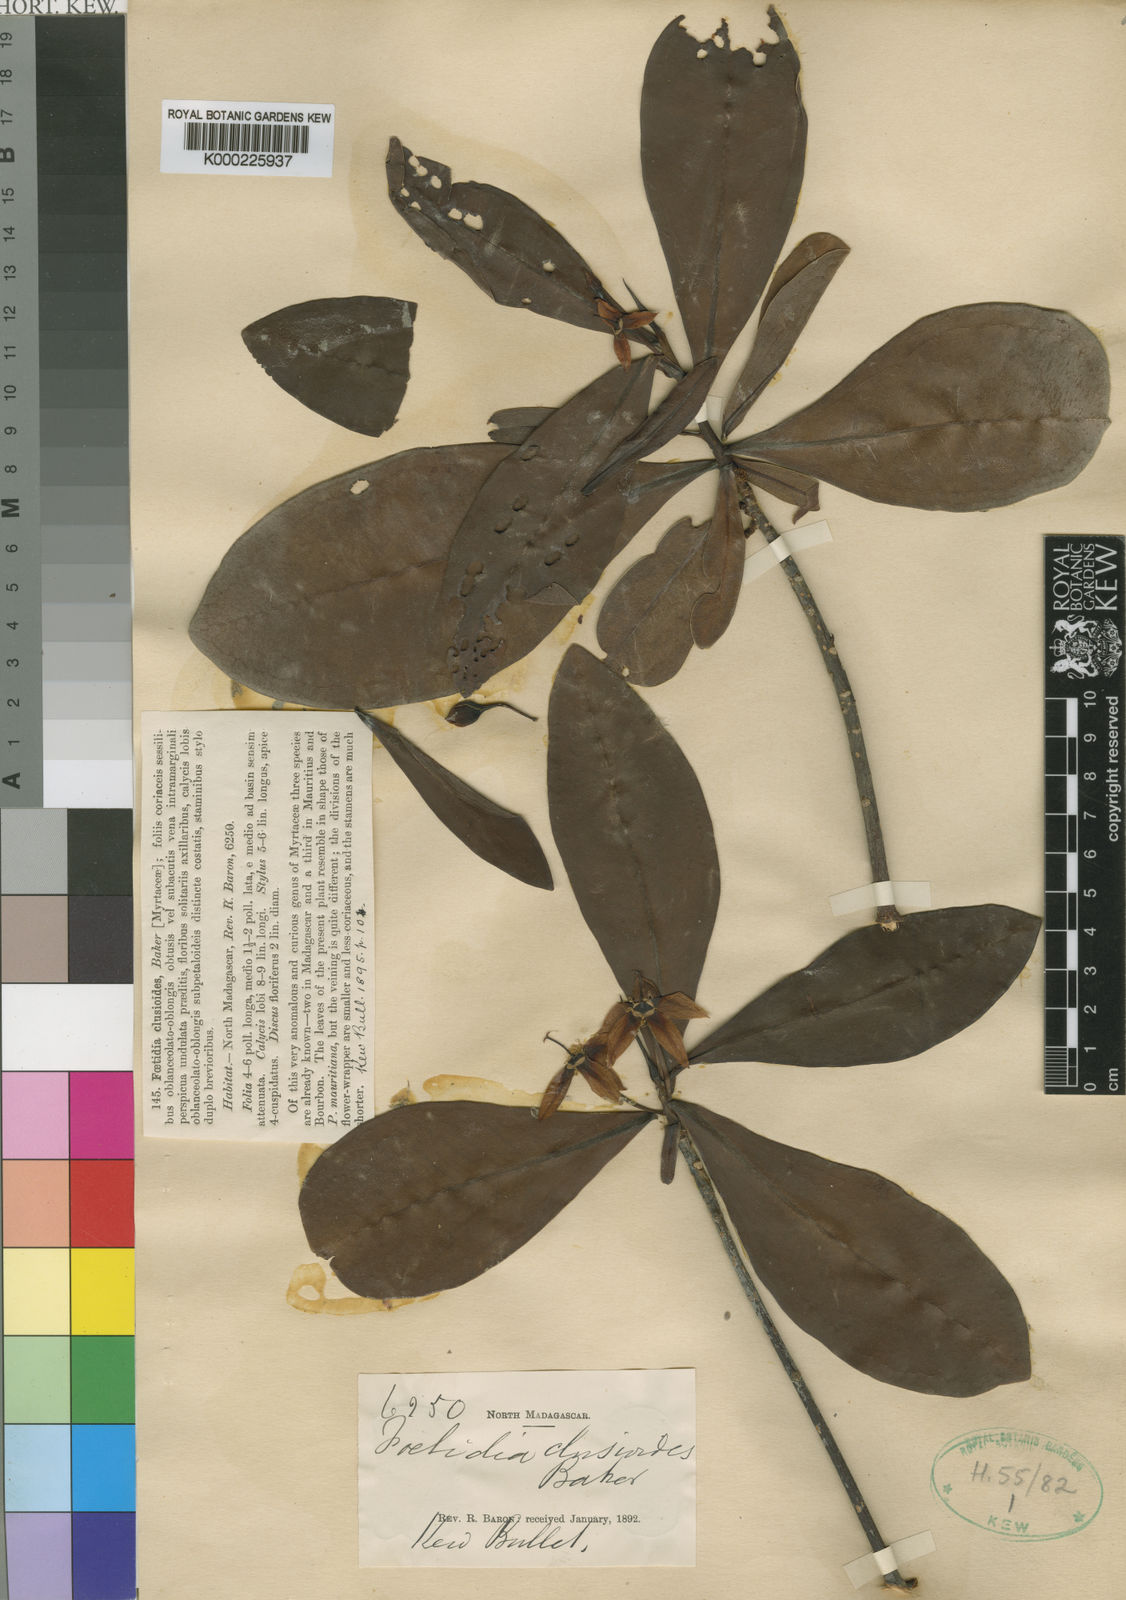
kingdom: Plantae
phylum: Tracheophyta
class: Magnoliopsida
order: Ericales
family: Lecythidaceae
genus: Foetidia
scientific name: Foetidia clusioides
